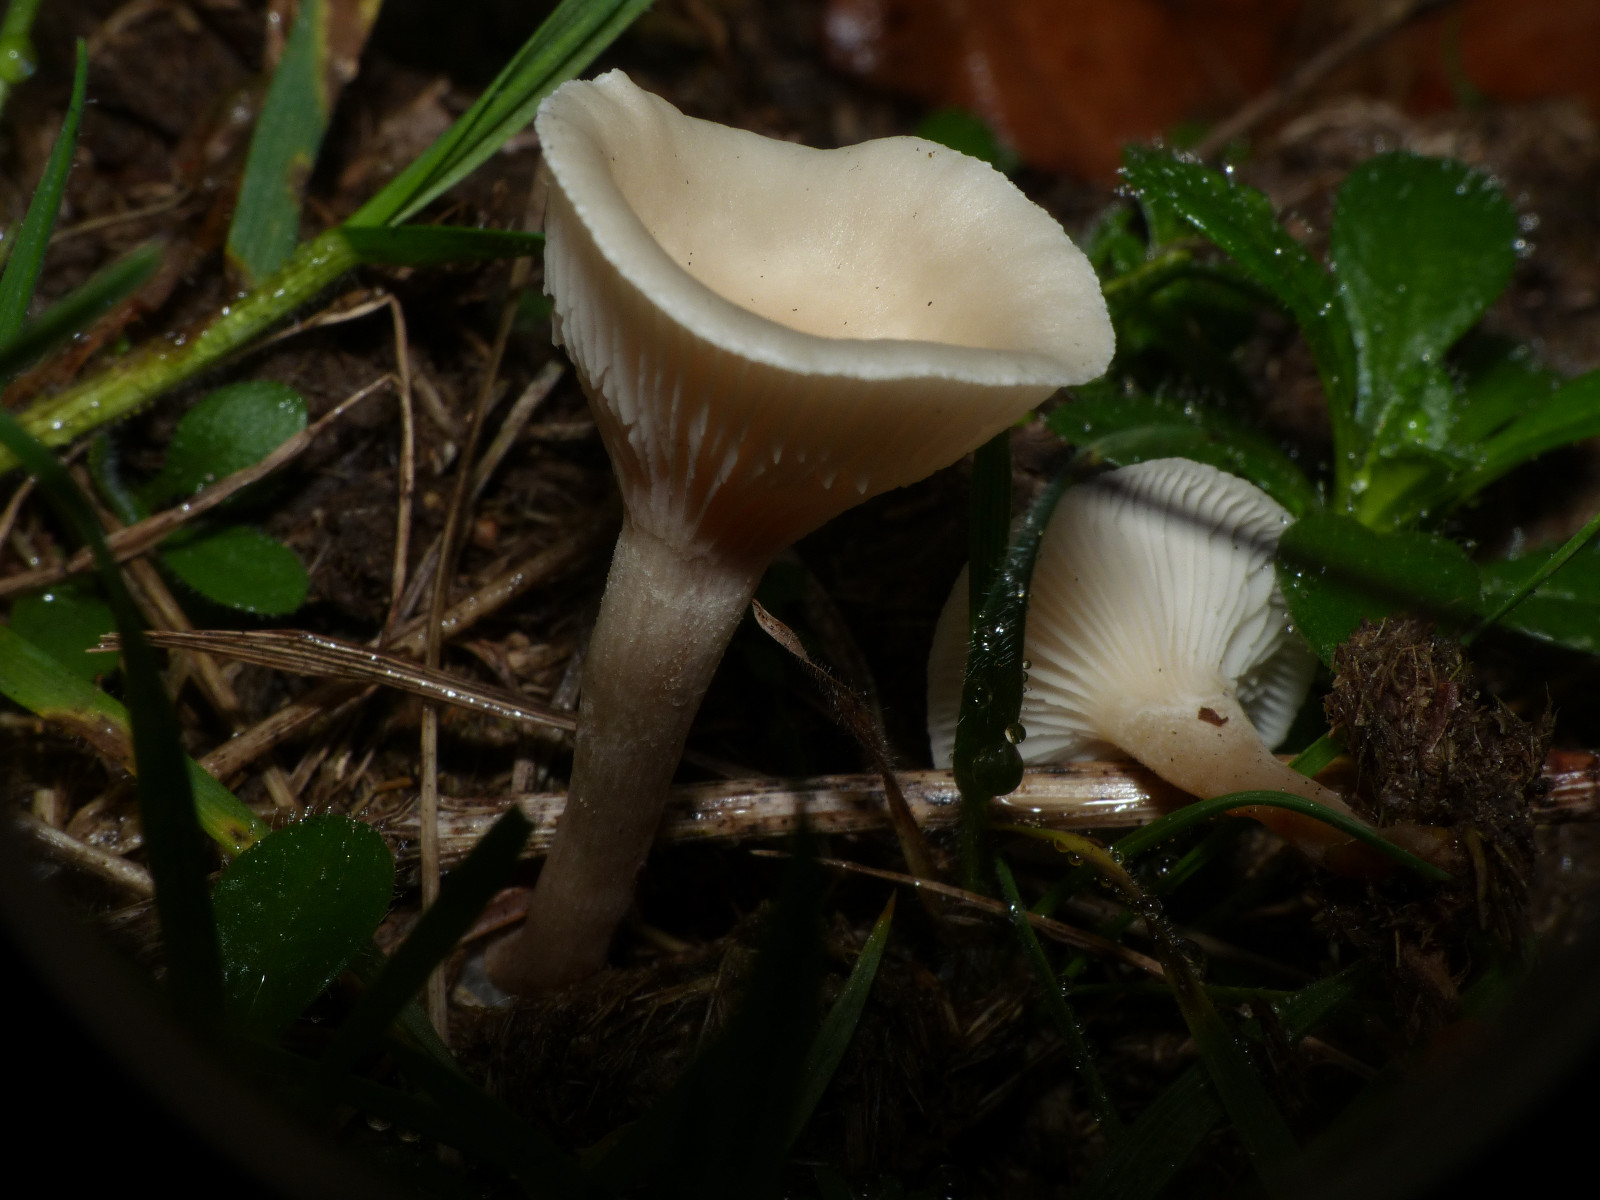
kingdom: Fungi
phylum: Basidiomycota
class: Agaricomycetes
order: Agaricales
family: Tricholomataceae
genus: Clitocybe
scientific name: Clitocybe rivulosa
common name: eng-tragthat
